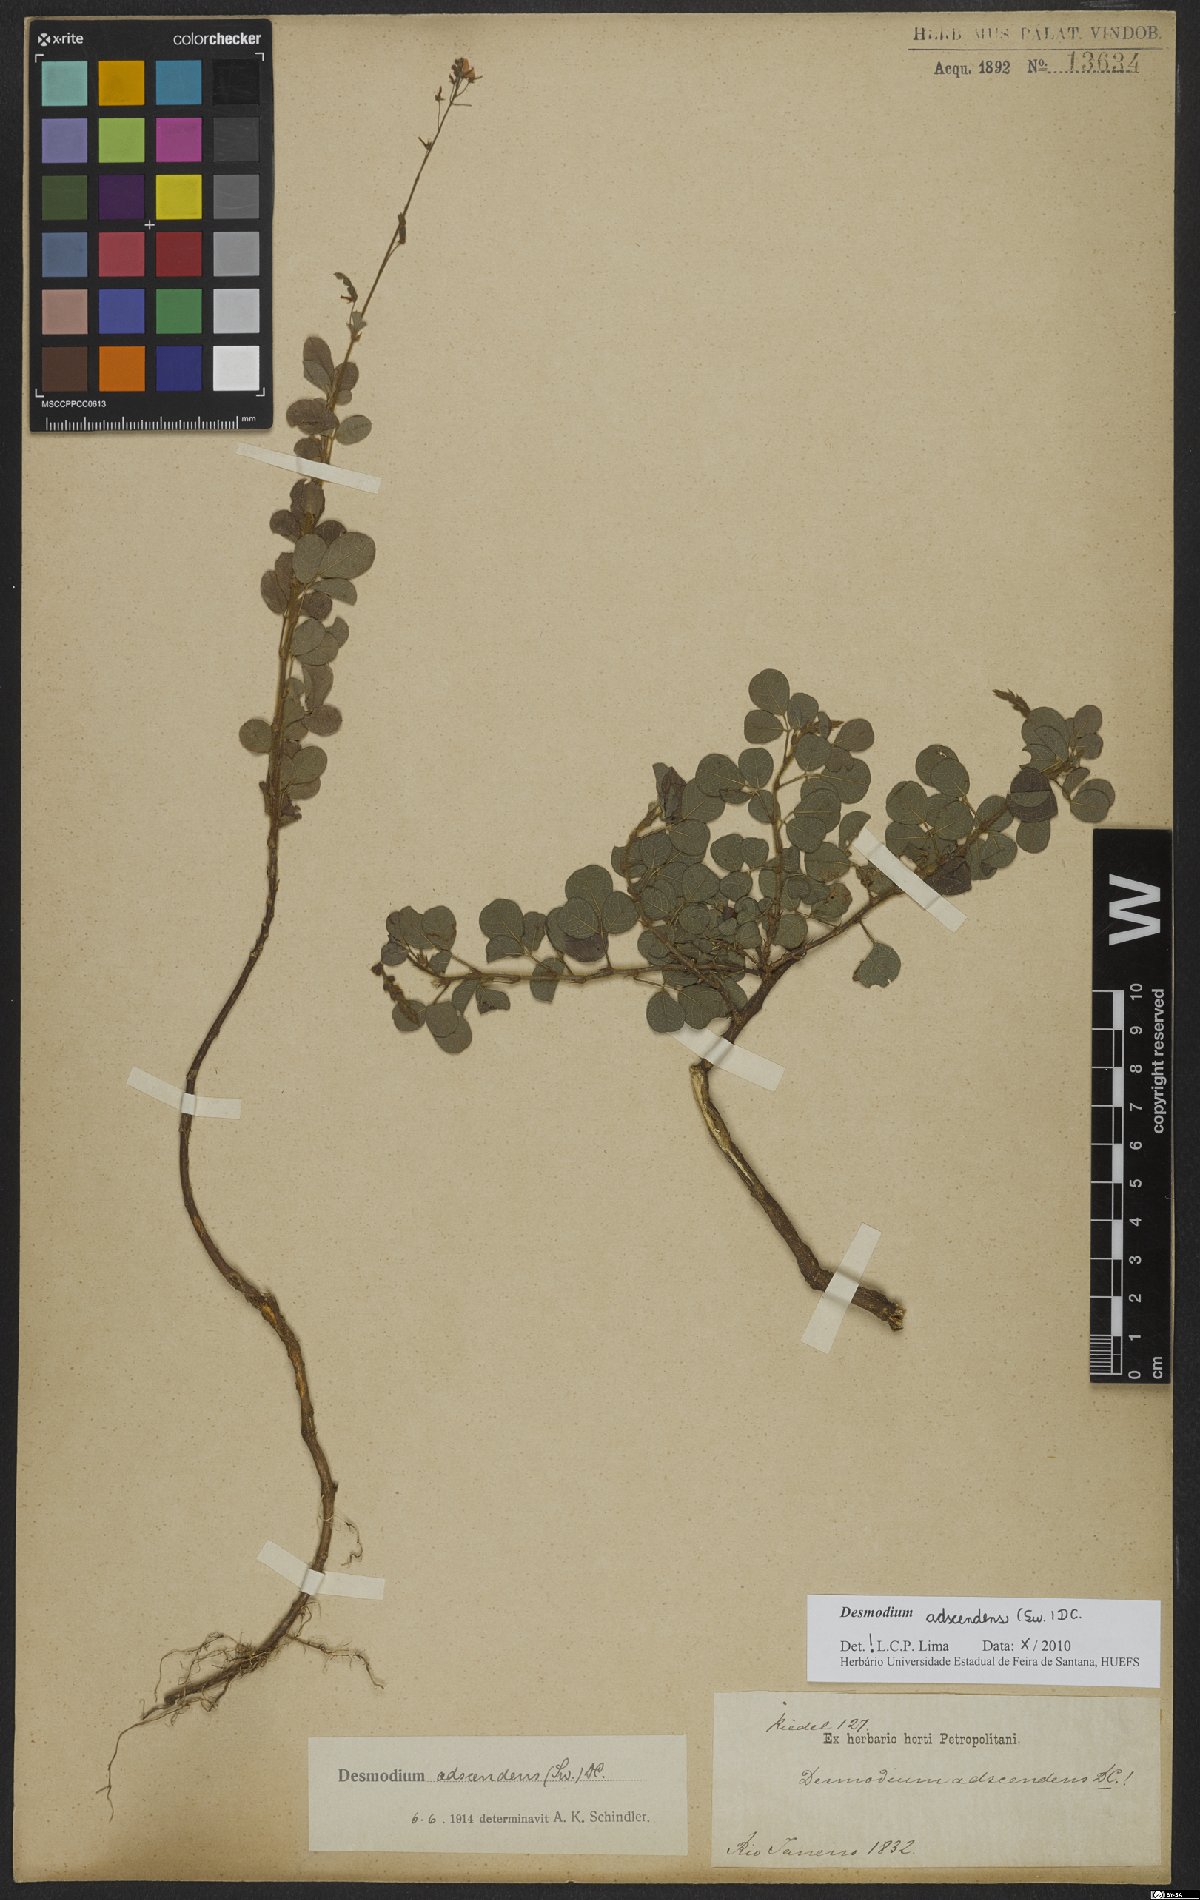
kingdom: Plantae
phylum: Tracheophyta
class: Magnoliopsida
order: Fabales
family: Fabaceae
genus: Grona
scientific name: Grona adscendens
